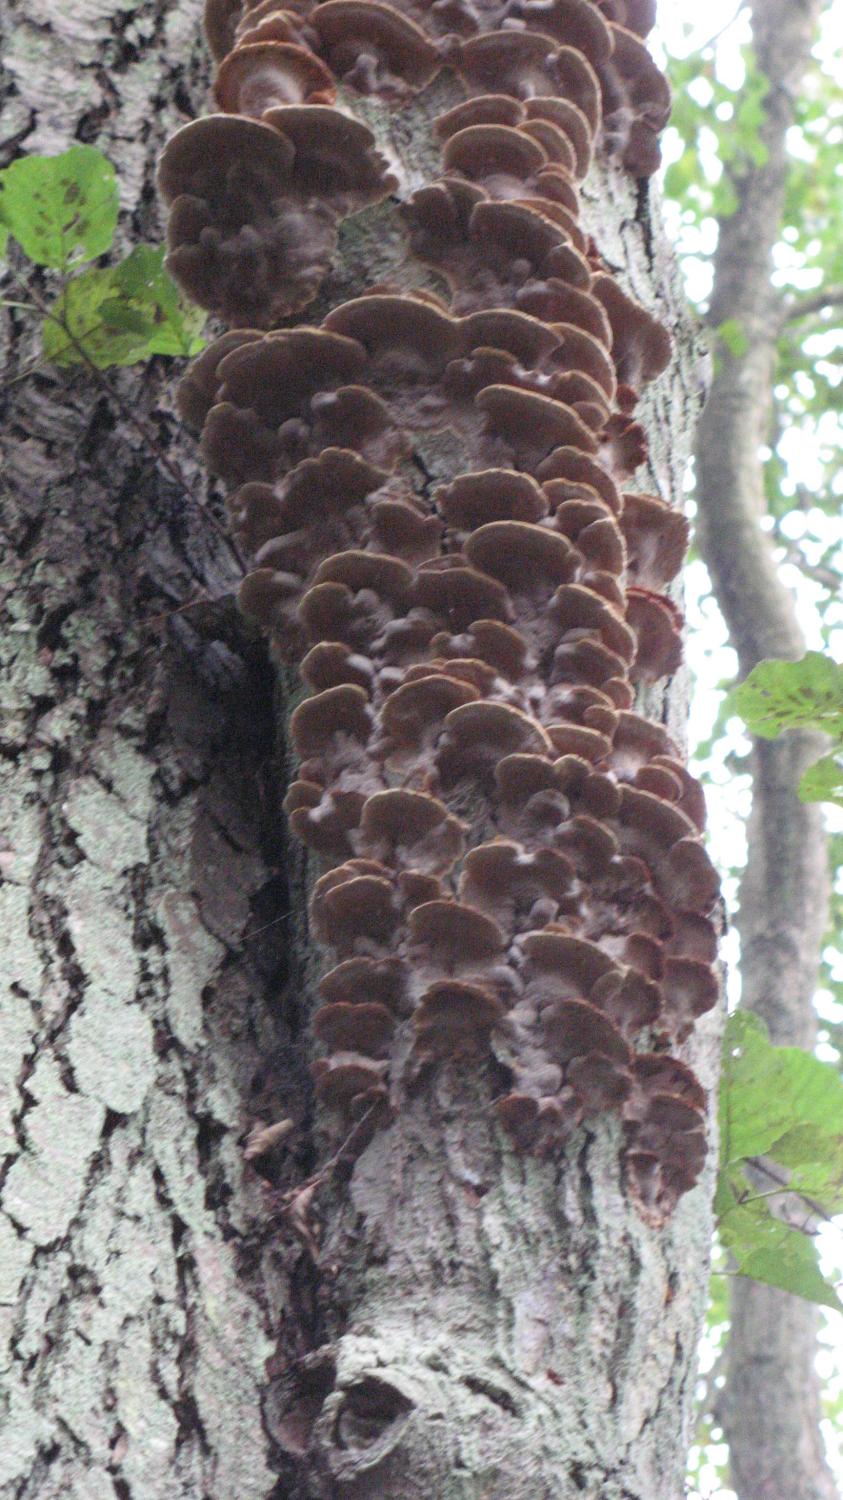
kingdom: Fungi
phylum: Basidiomycota
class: Agaricomycetes
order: Hymenochaetales
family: Hymenochaetaceae
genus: Xanthoporia
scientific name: Xanthoporia radiata
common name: elle-spejlporesvamp
